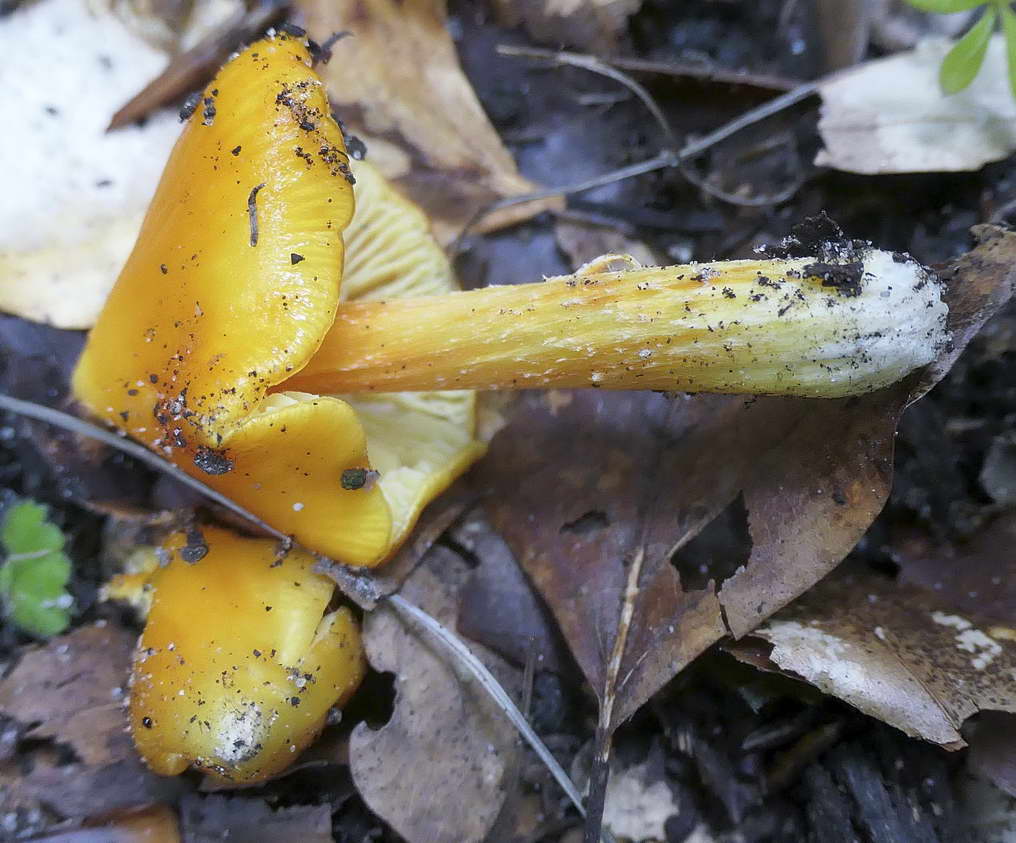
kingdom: Fungi
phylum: Basidiomycota
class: Agaricomycetes
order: Agaricales
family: Hygrophoraceae
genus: Hygrocybe
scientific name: Hygrocybe acutoconica
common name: spidspuklet vokshat
